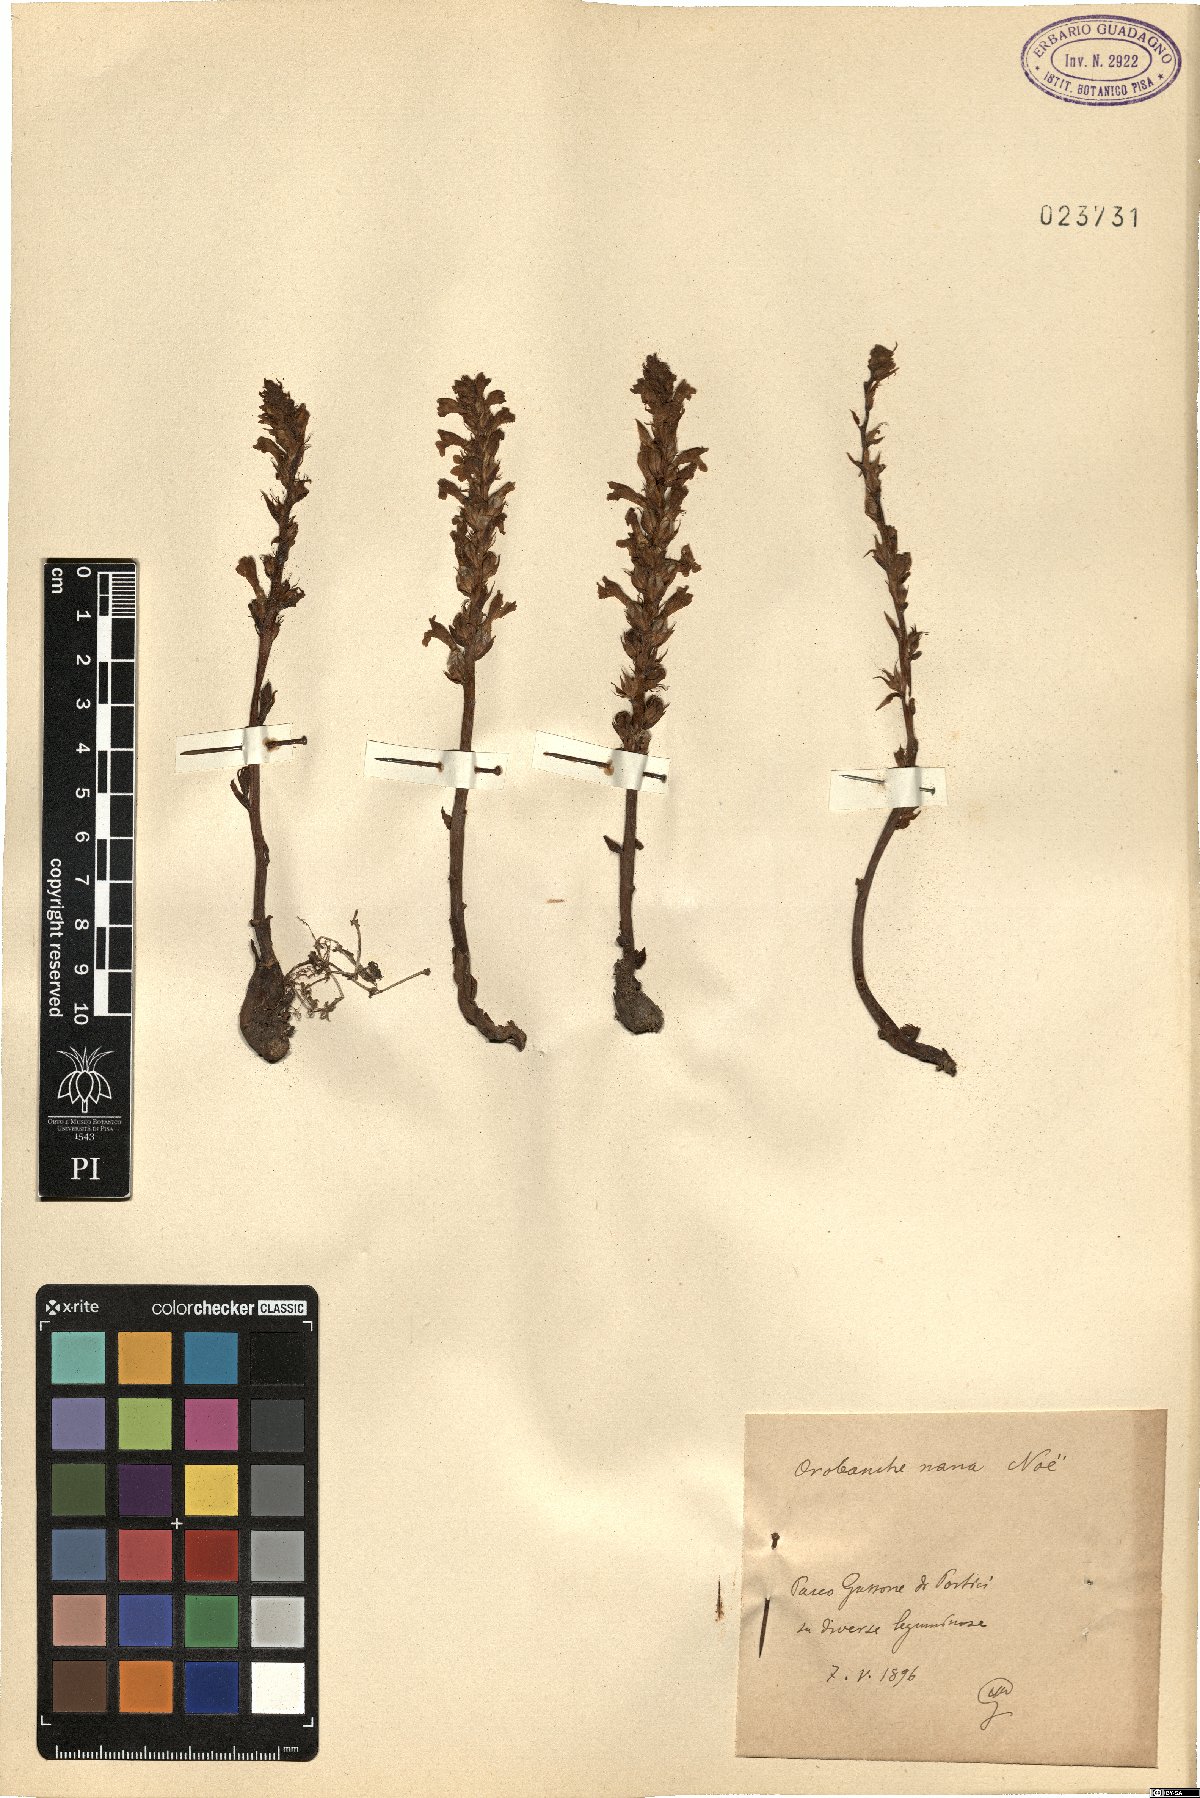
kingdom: Plantae
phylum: Tracheophyta
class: Magnoliopsida
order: Lamiales
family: Orobanchaceae
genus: Phelipanche
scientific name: Phelipanche mutelii
